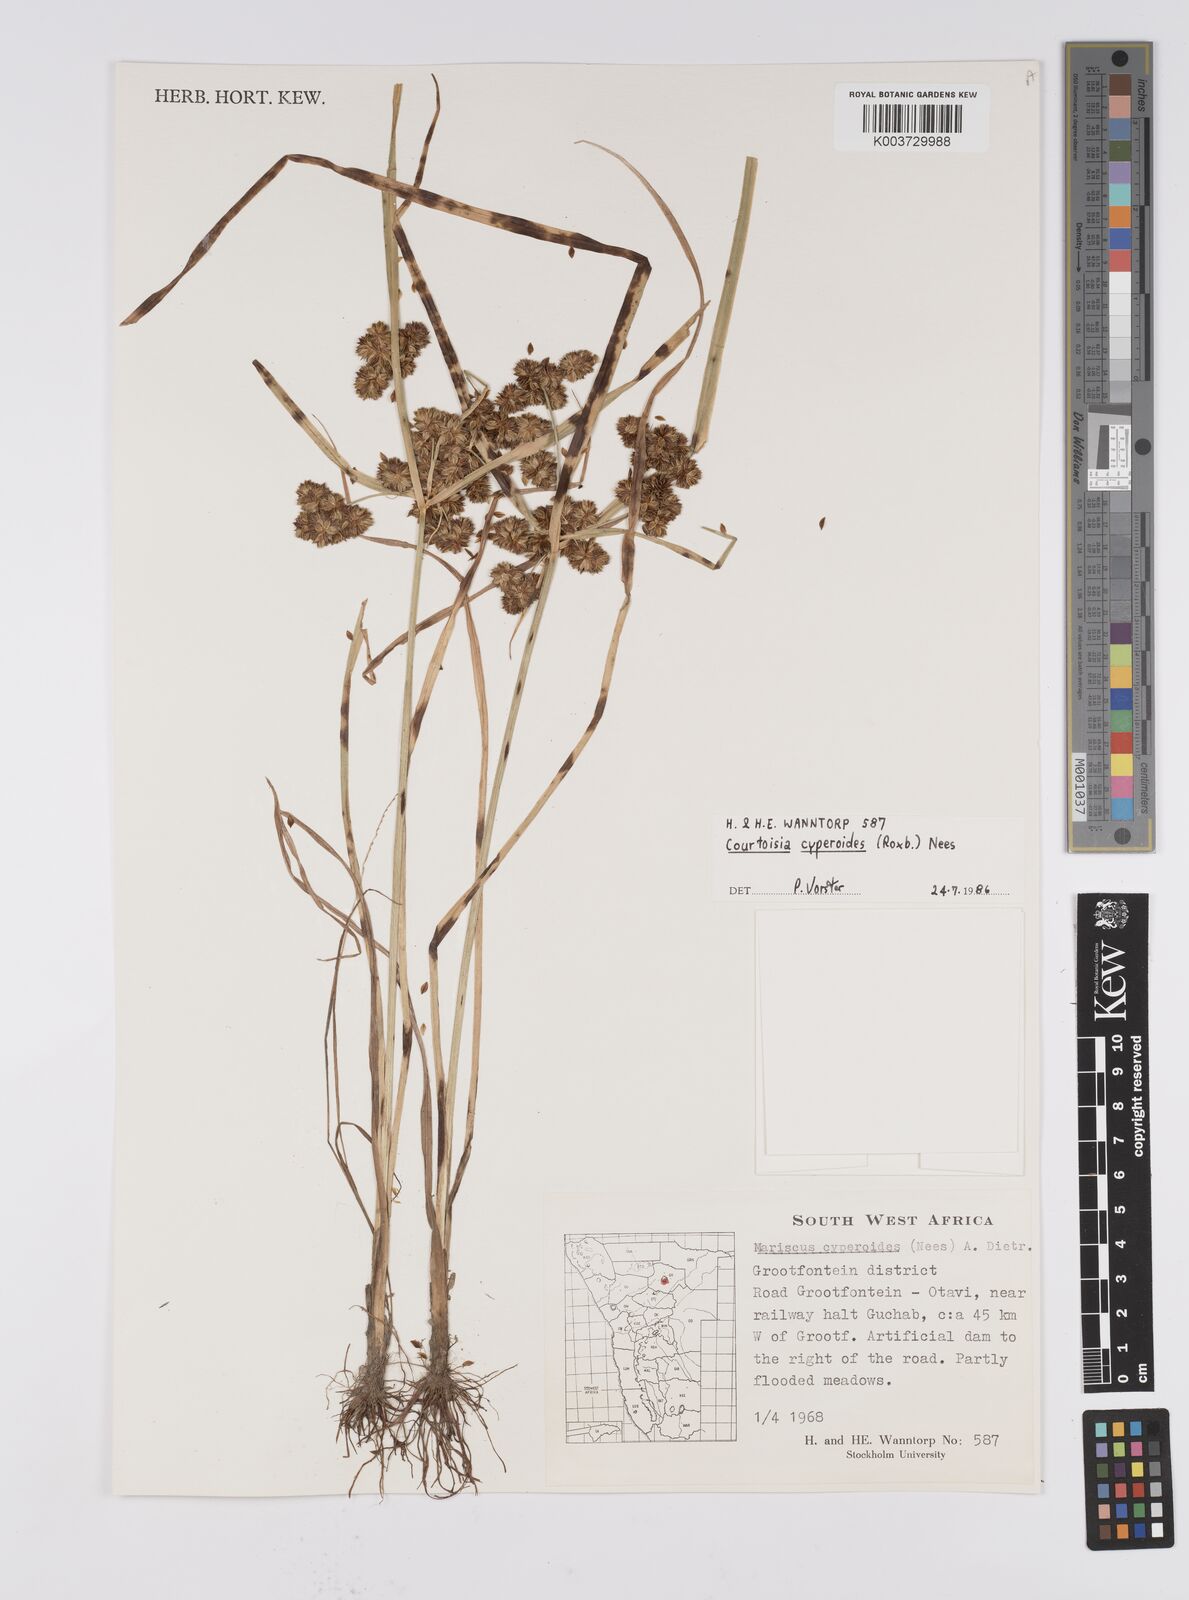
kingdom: Plantae
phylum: Tracheophyta
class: Liliopsida
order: Poales
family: Cyperaceae
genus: Cyperus
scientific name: Cyperus cyperoides
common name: Pacific island flat sedge
